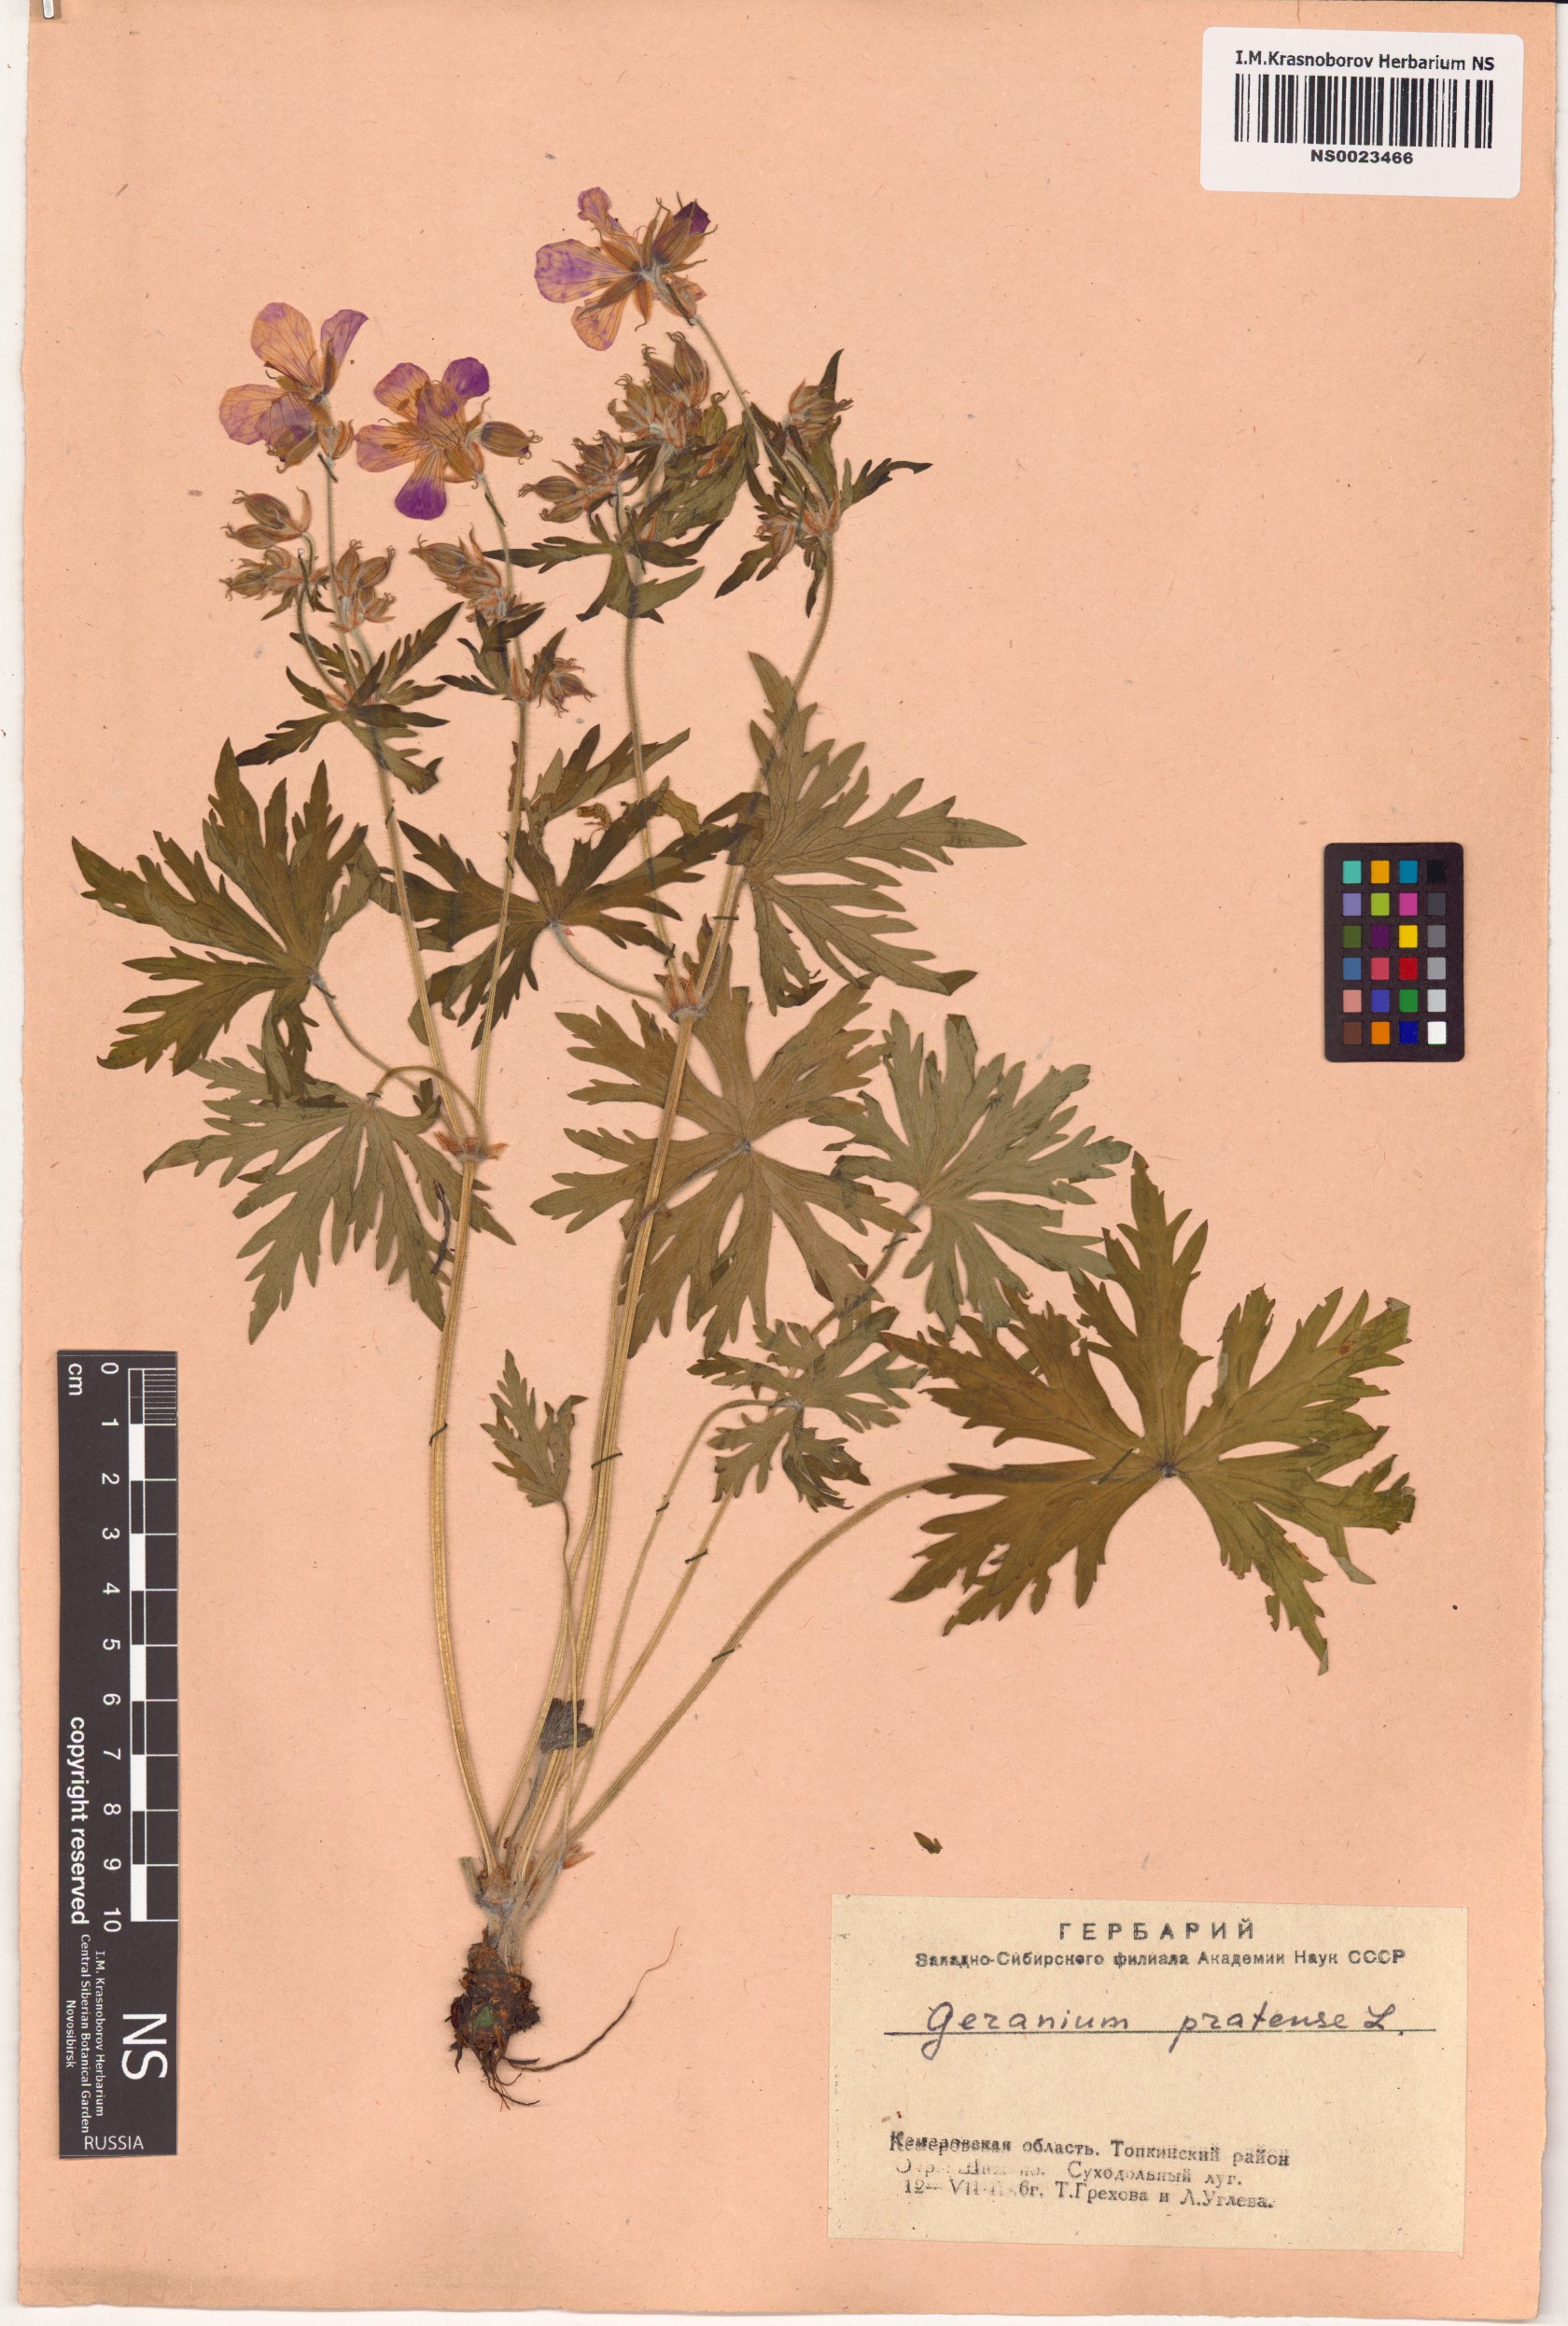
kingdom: Plantae
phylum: Tracheophyta
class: Magnoliopsida
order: Geraniales
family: Geraniaceae
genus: Geranium
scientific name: Geranium pratense
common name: Meadow crane's-bill
